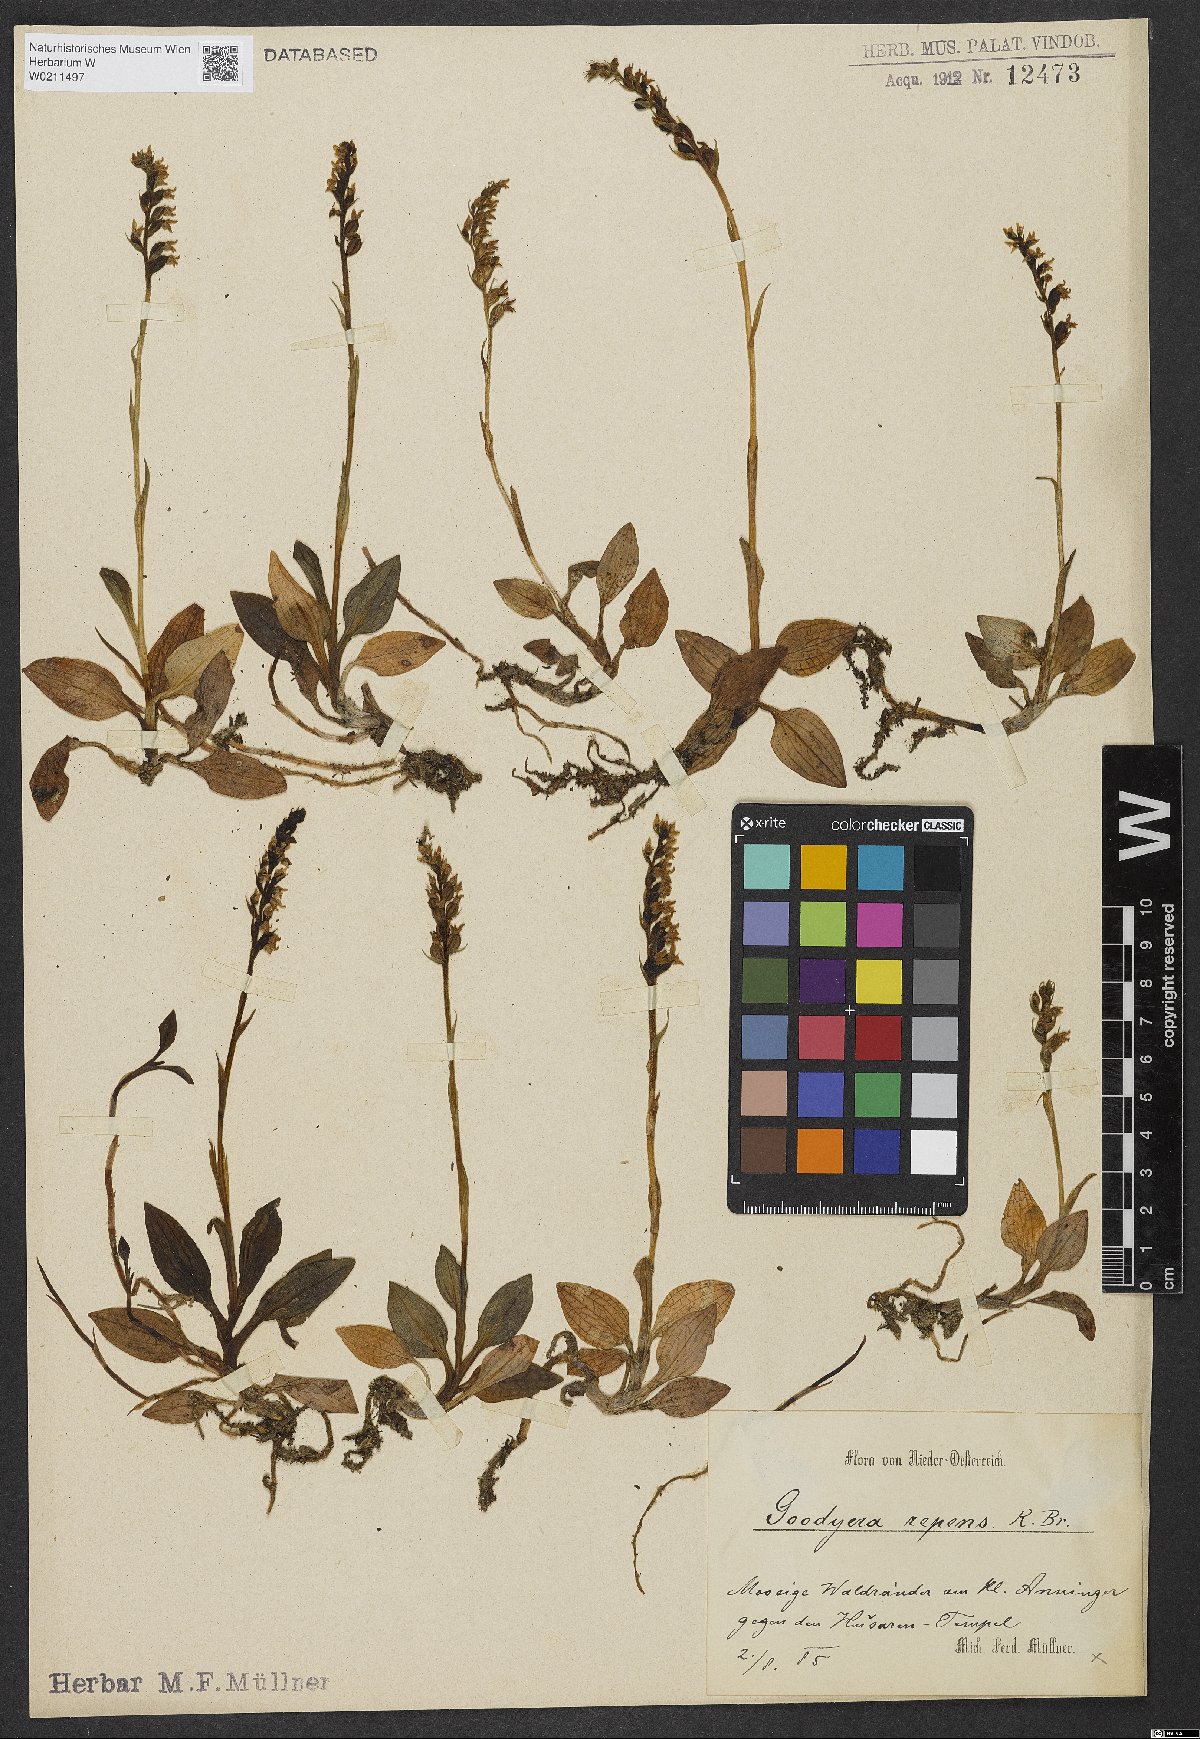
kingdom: Plantae
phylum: Tracheophyta
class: Liliopsida
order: Asparagales
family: Orchidaceae
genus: Goodyera
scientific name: Goodyera repens
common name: Creeping lady's-tresses
